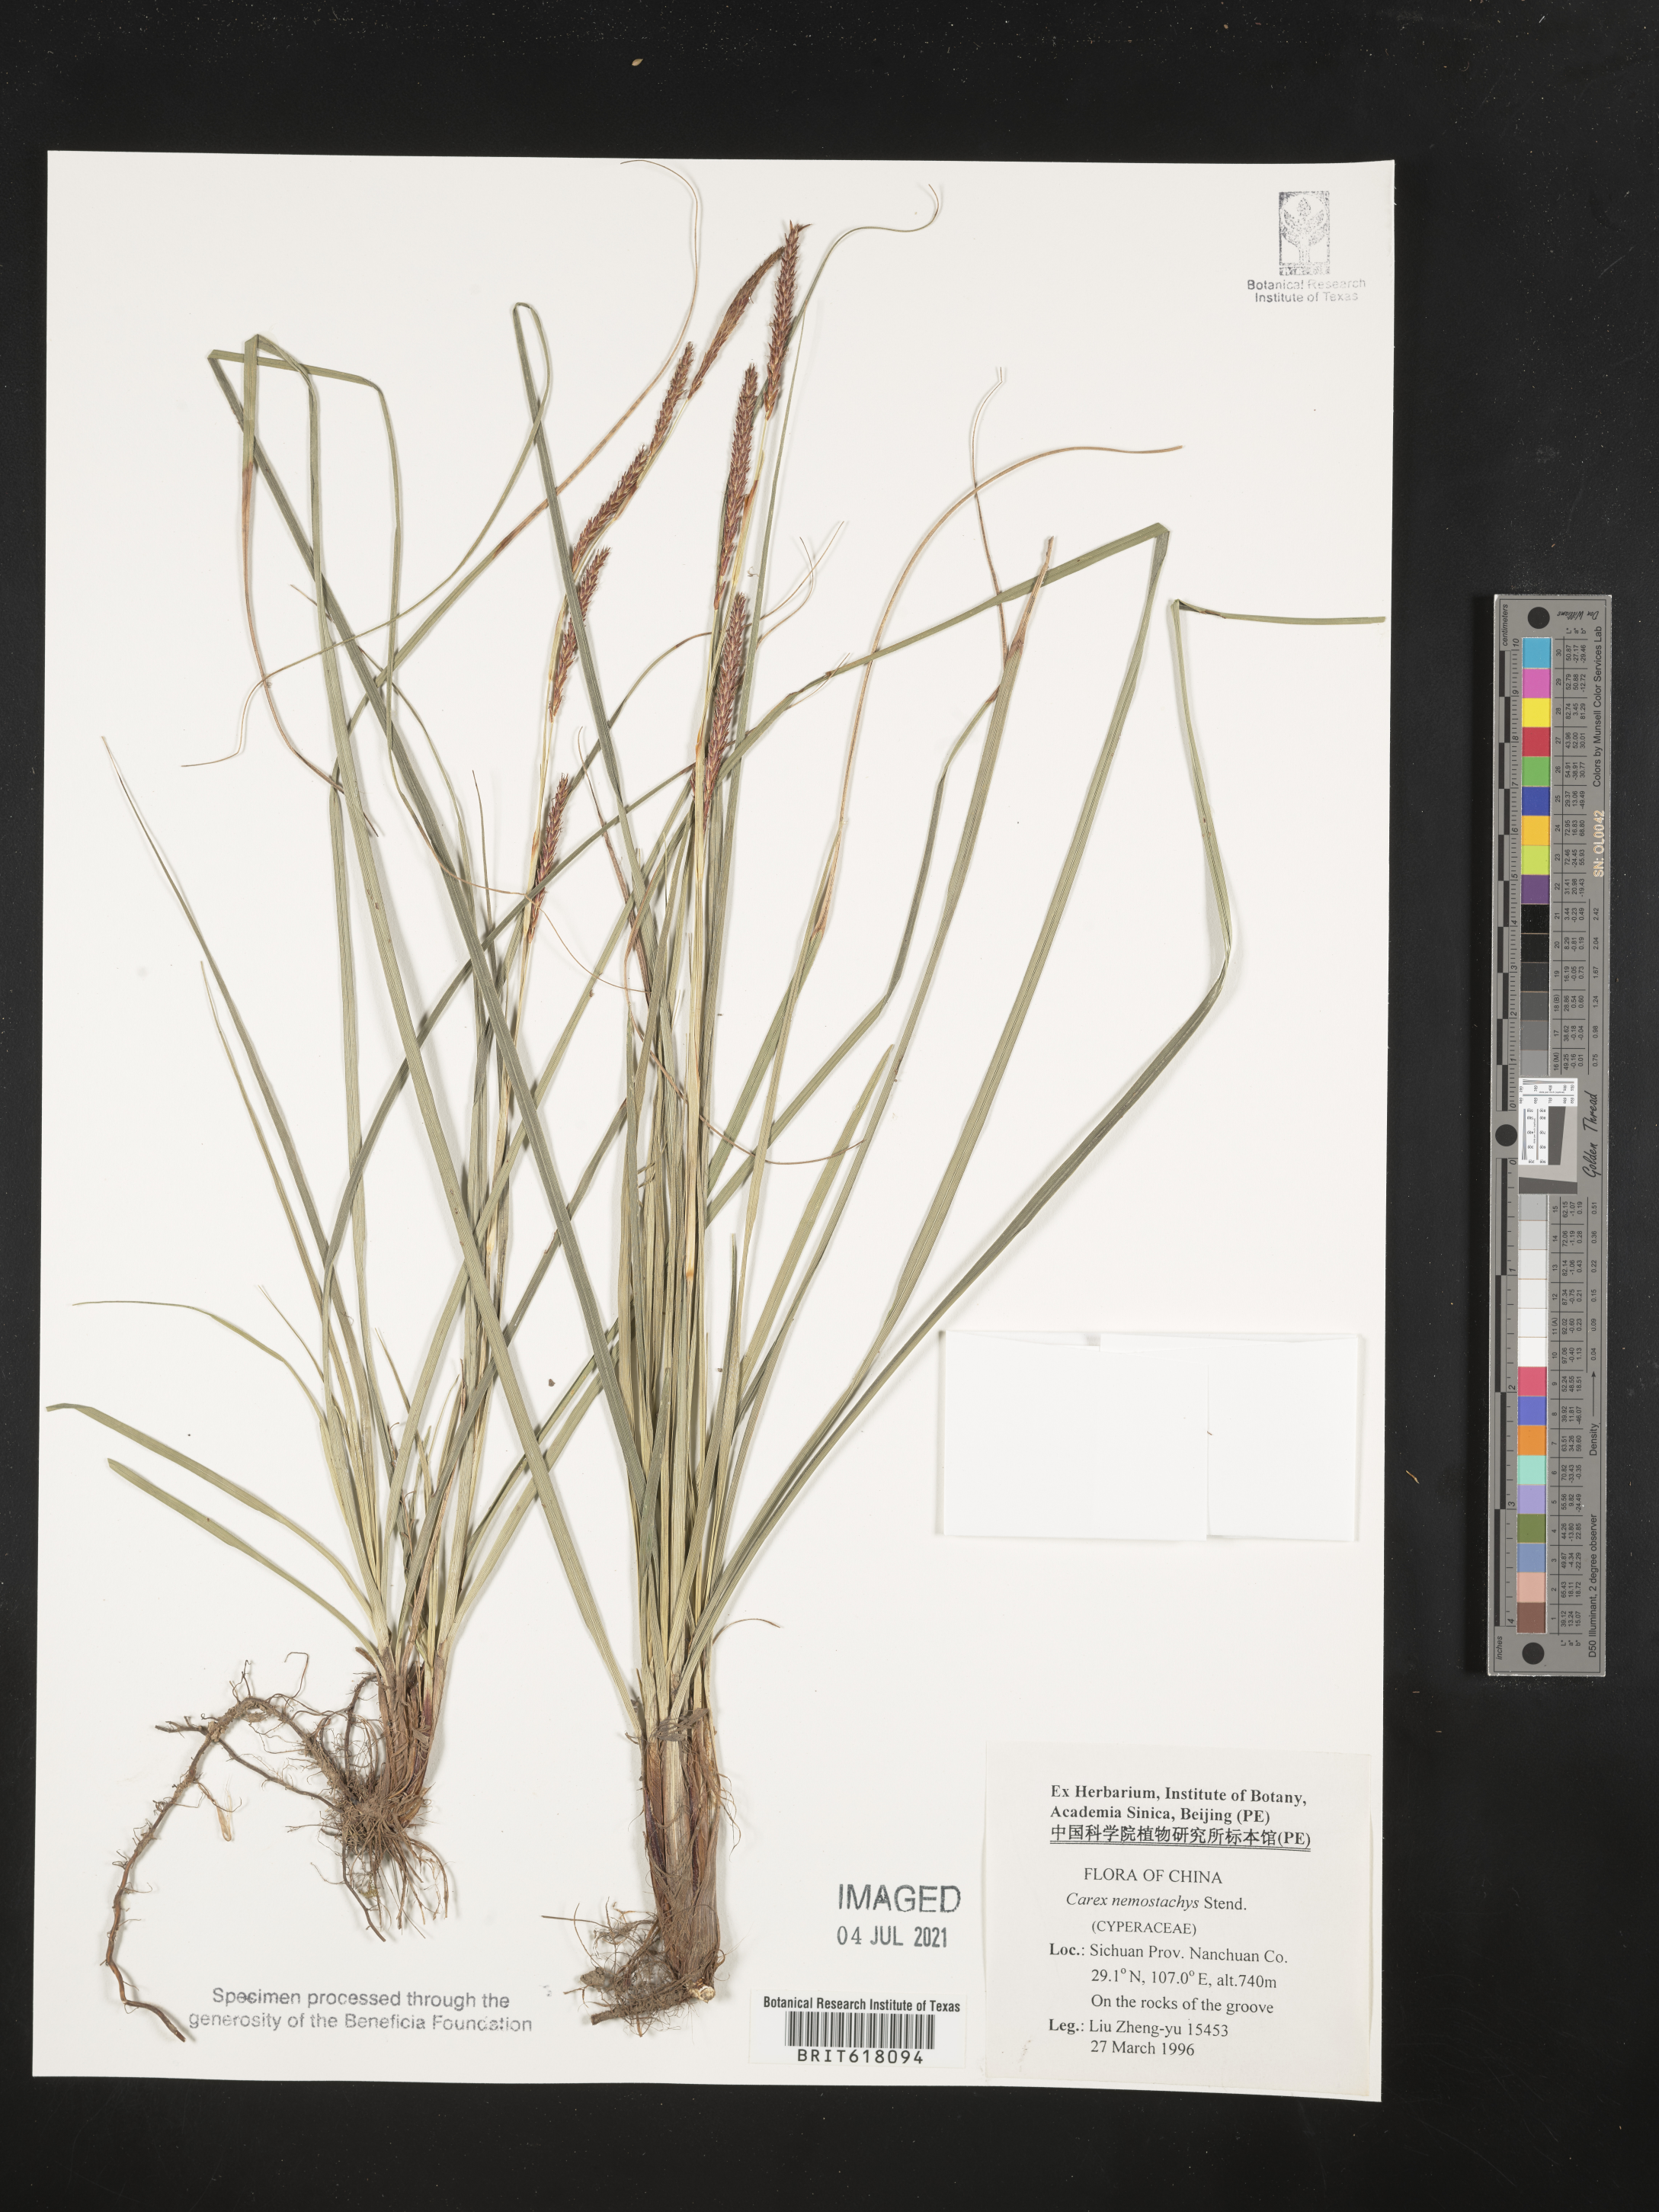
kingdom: Plantae
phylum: Tracheophyta
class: Liliopsida
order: Poales
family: Cyperaceae
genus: Carex
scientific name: Carex nemostachys
